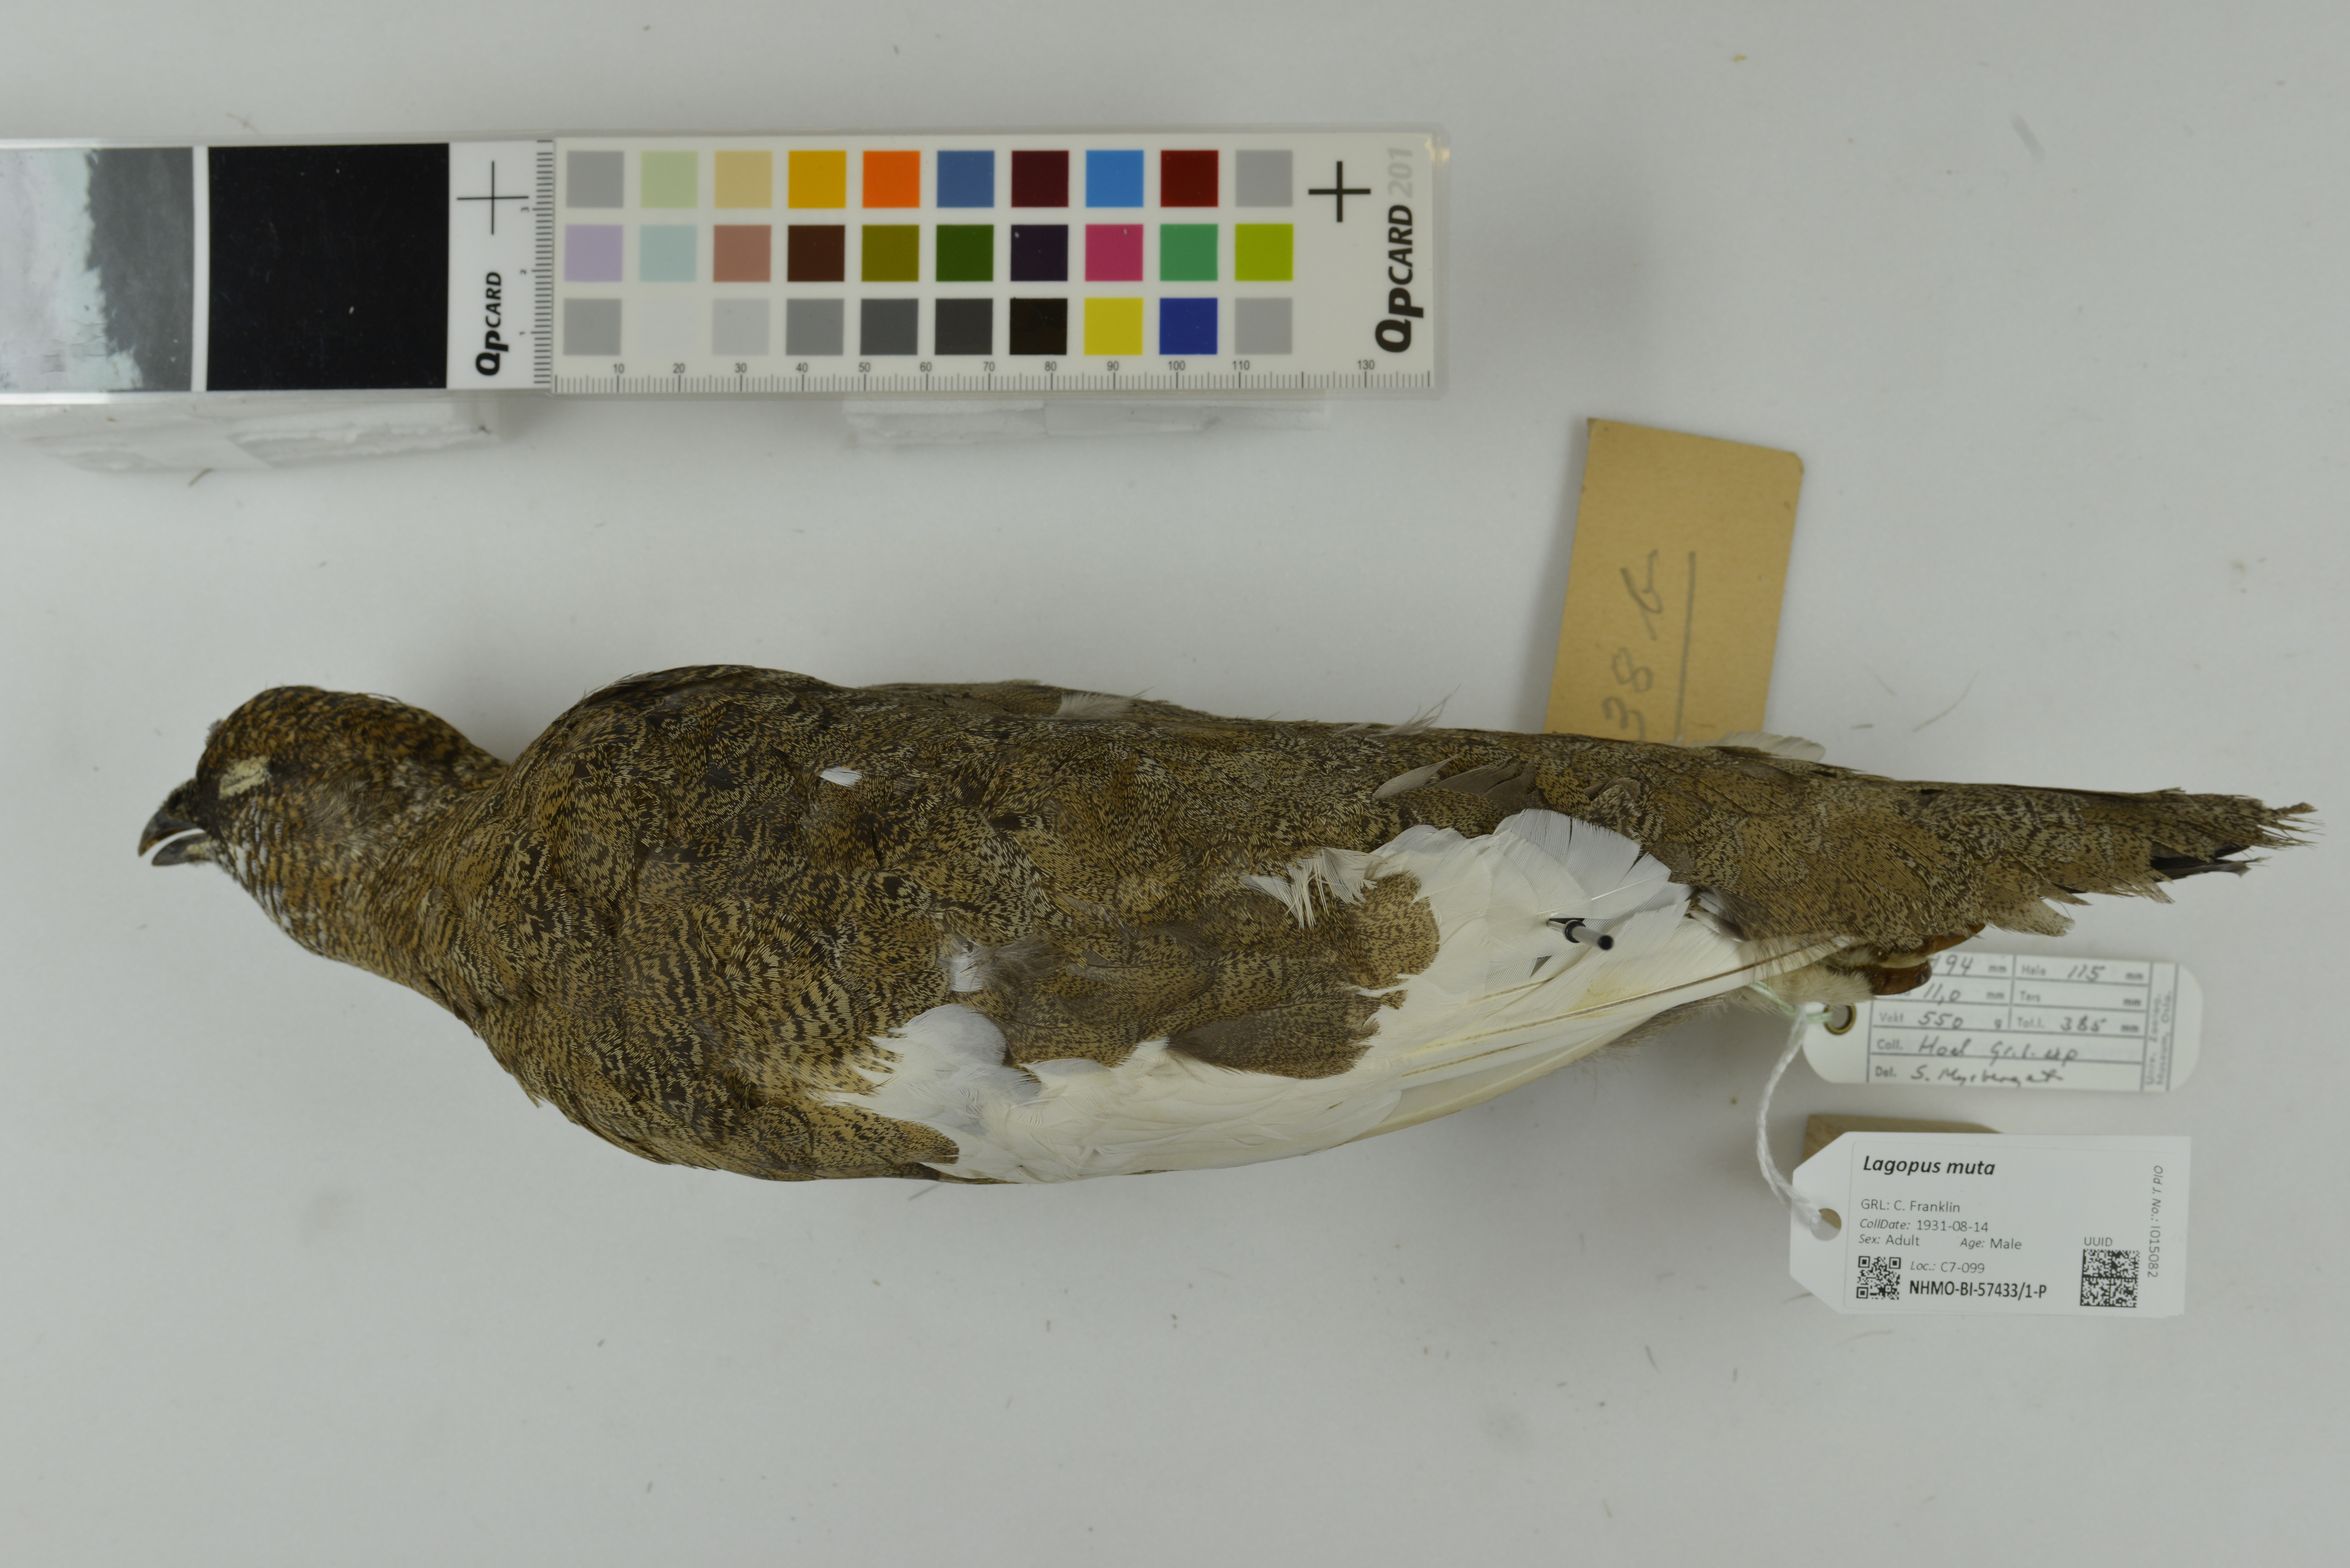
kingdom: Animalia
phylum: Chordata
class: Aves
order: Galliformes
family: Phasianidae
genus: Lagopus
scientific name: Lagopus muta
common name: Rock ptarmigan
